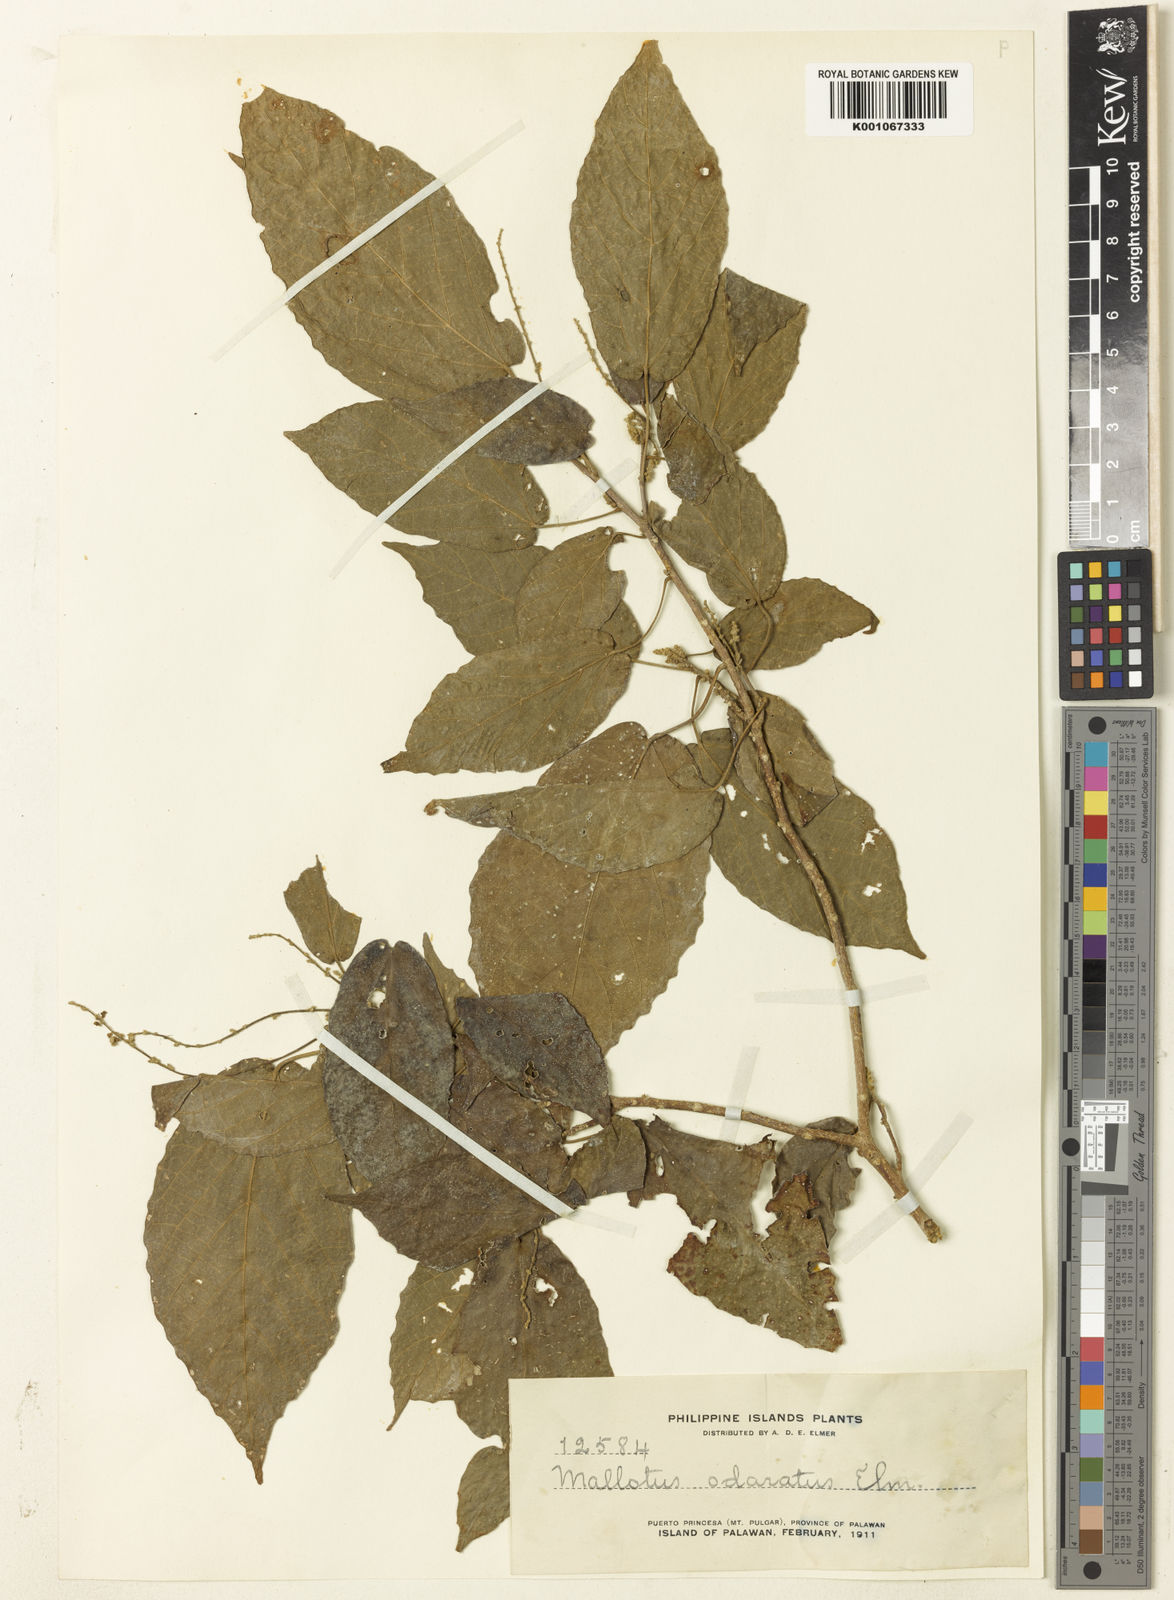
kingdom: Plantae
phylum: Tracheophyta
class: Magnoliopsida
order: Malpighiales
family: Euphorbiaceae
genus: Mallotus
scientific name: Mallotus peltatus
